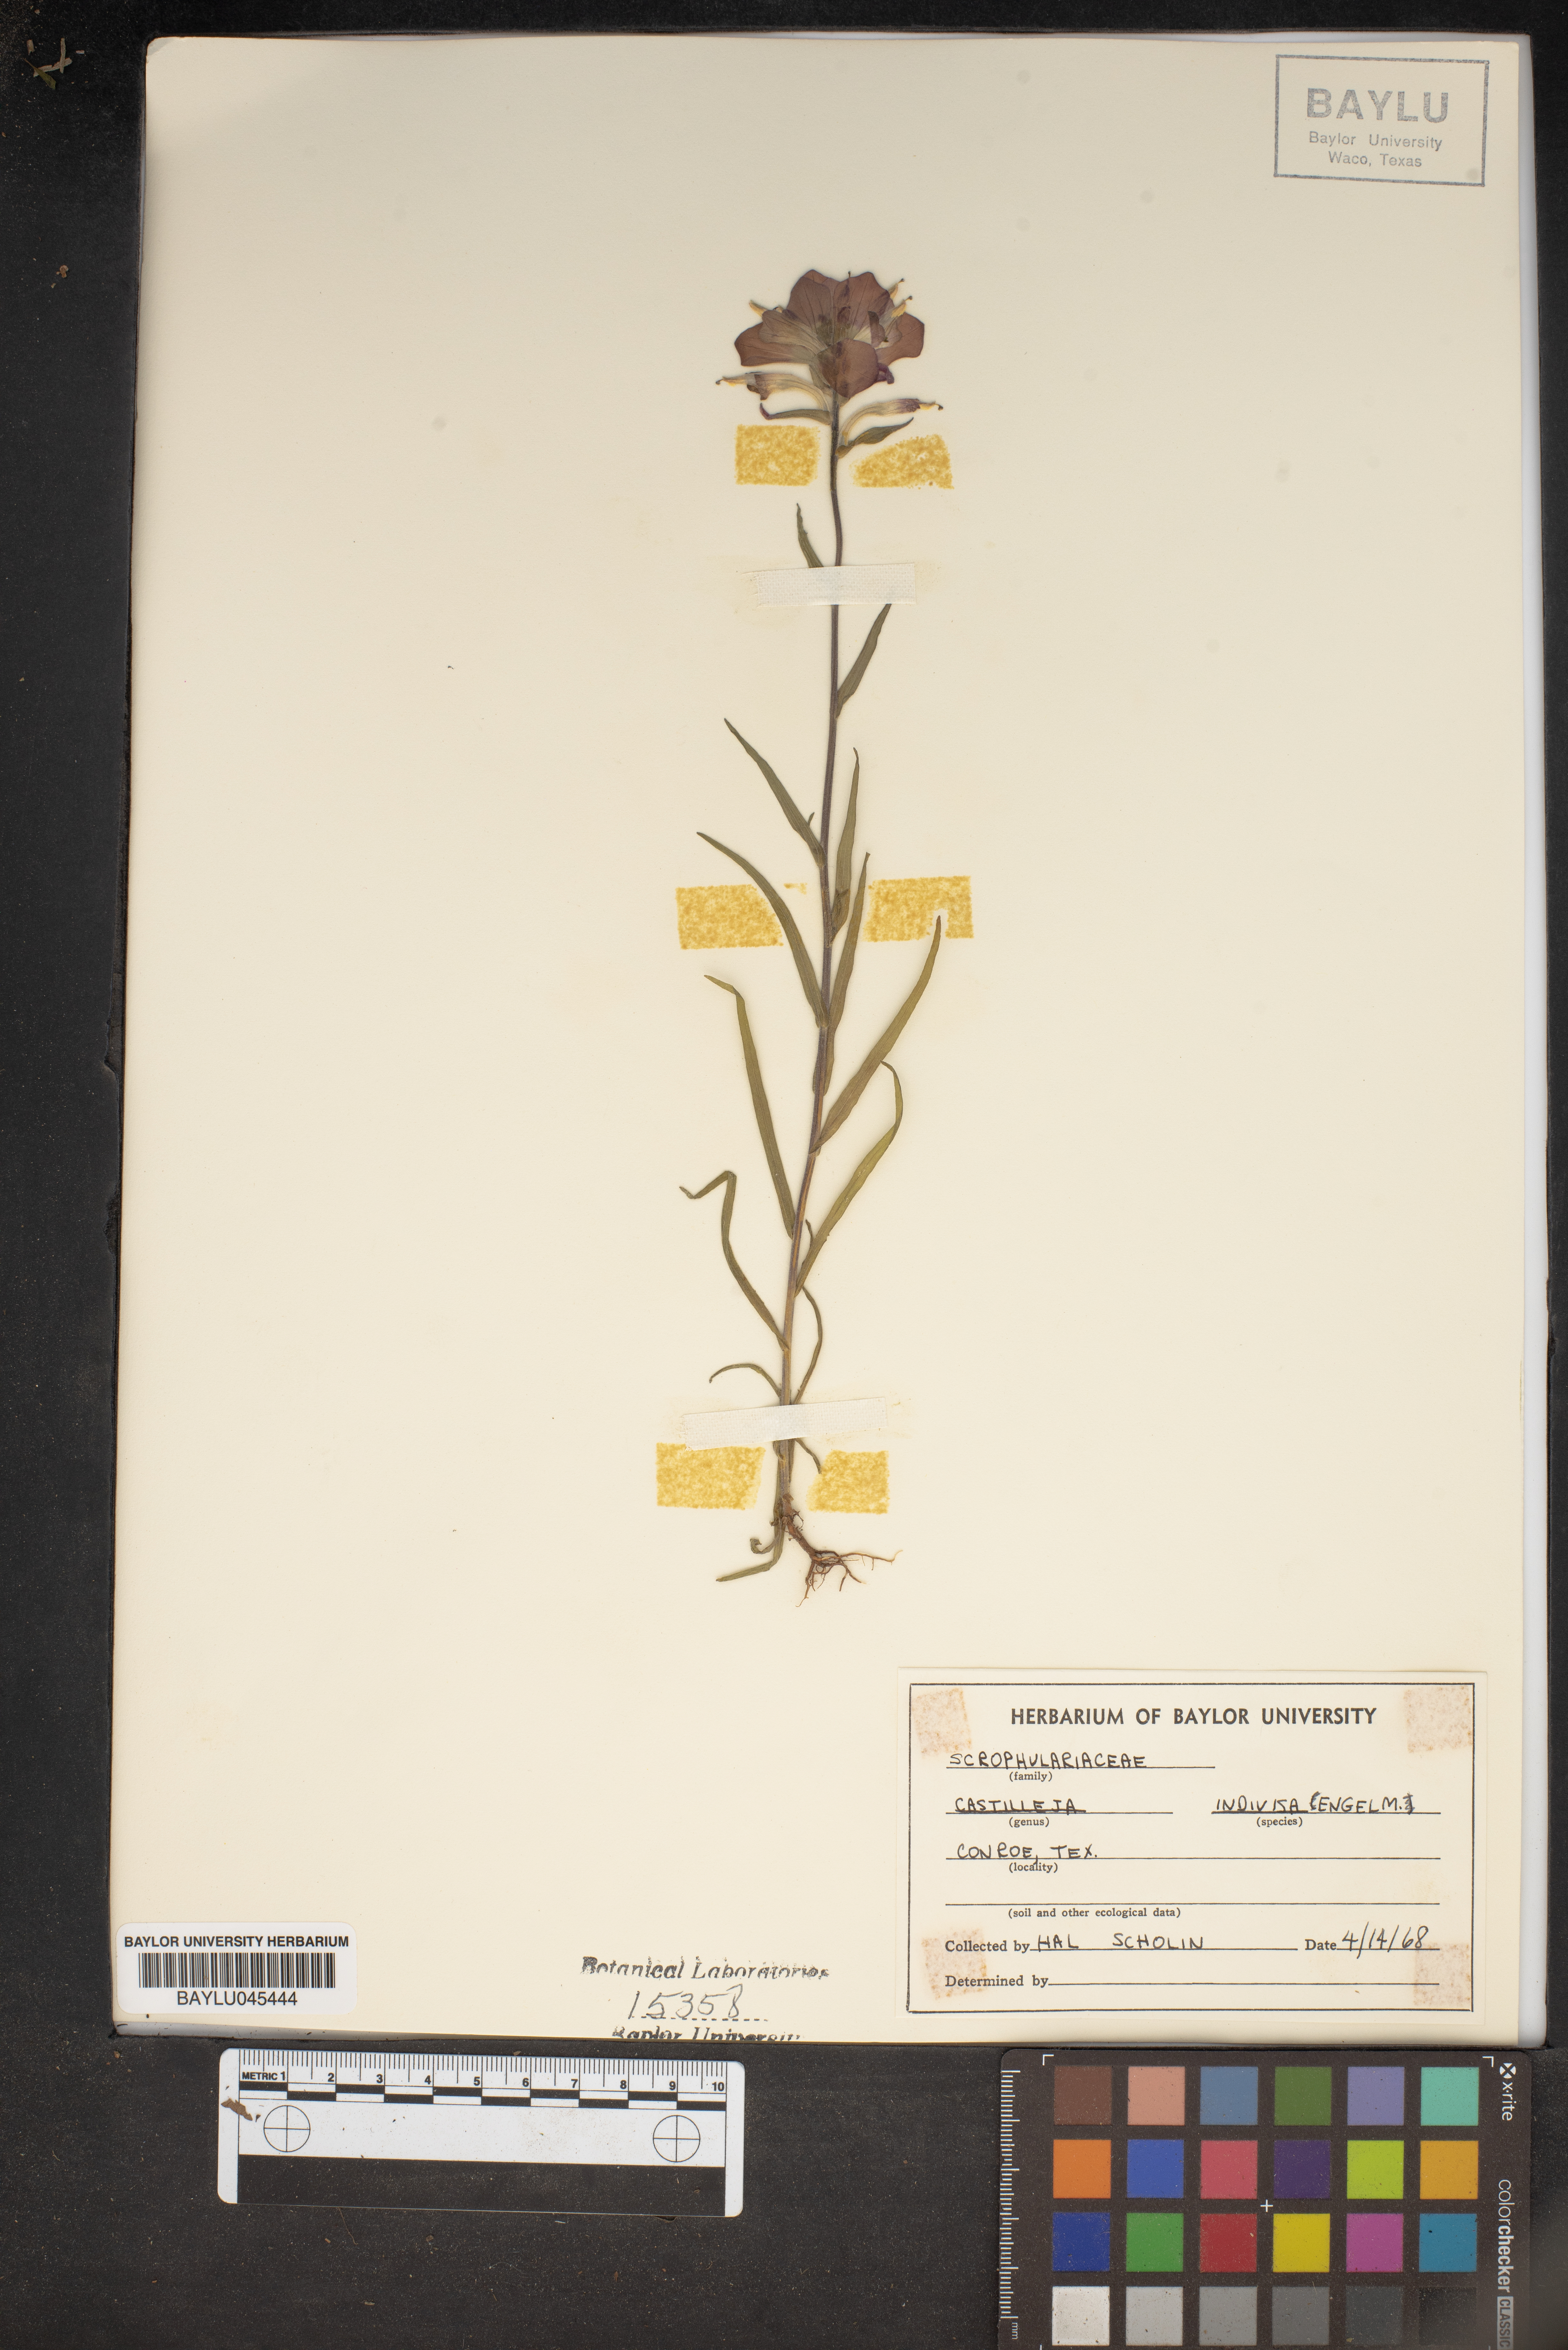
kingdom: Plantae
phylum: Tracheophyta
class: Magnoliopsida
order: Lamiales
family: Orobanchaceae
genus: Castilleja
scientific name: Castilleja indivisa
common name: Texas paintbrush
